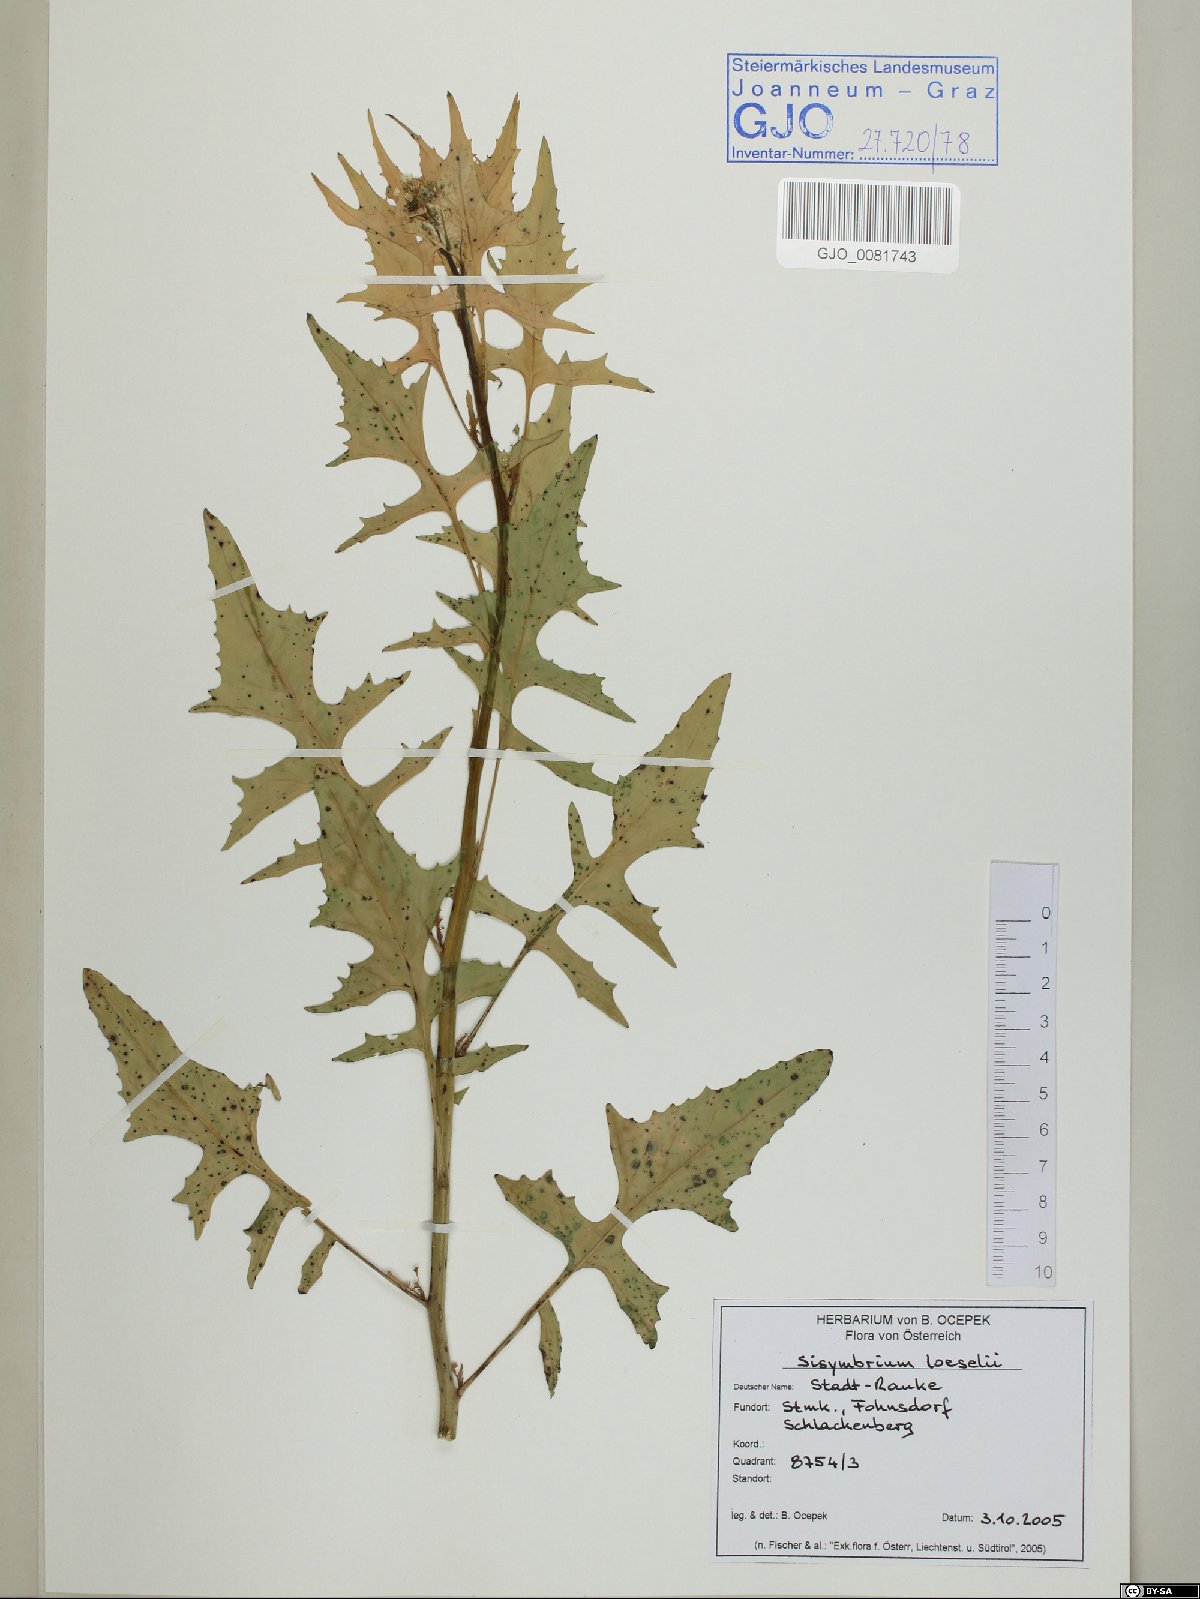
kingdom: Plantae
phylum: Tracheophyta
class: Magnoliopsida
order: Brassicales
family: Brassicaceae
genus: Sisymbrium
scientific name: Sisymbrium loeselii
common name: False london-rocket
